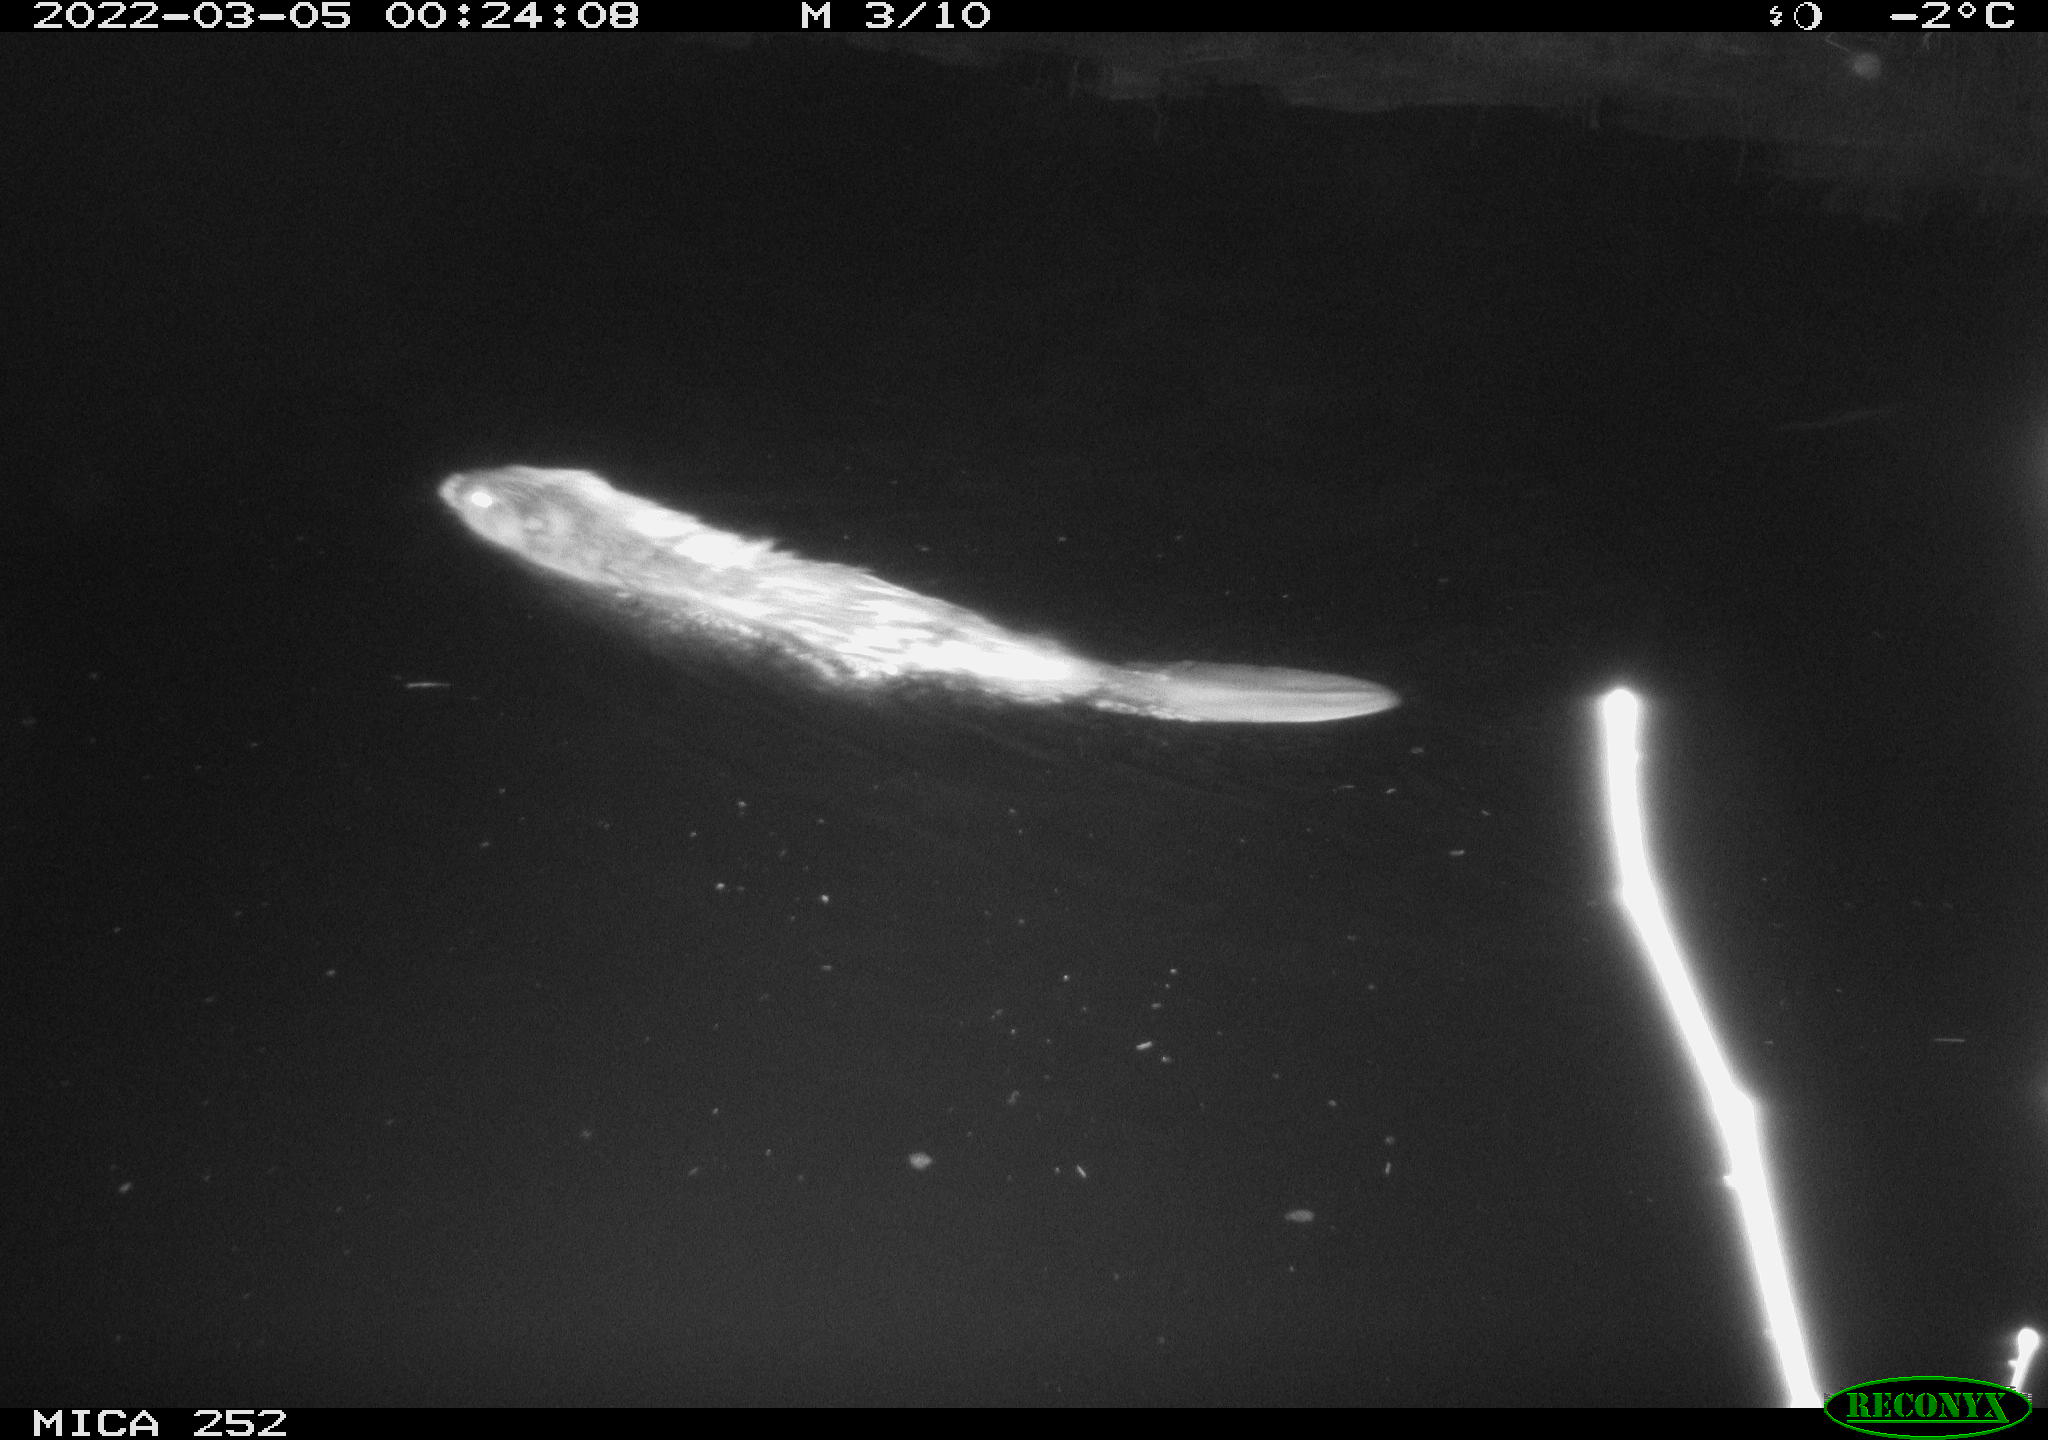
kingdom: Animalia
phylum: Chordata
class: Mammalia
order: Rodentia
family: Castoridae
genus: Castor
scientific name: Castor fiber
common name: Eurasian beaver
